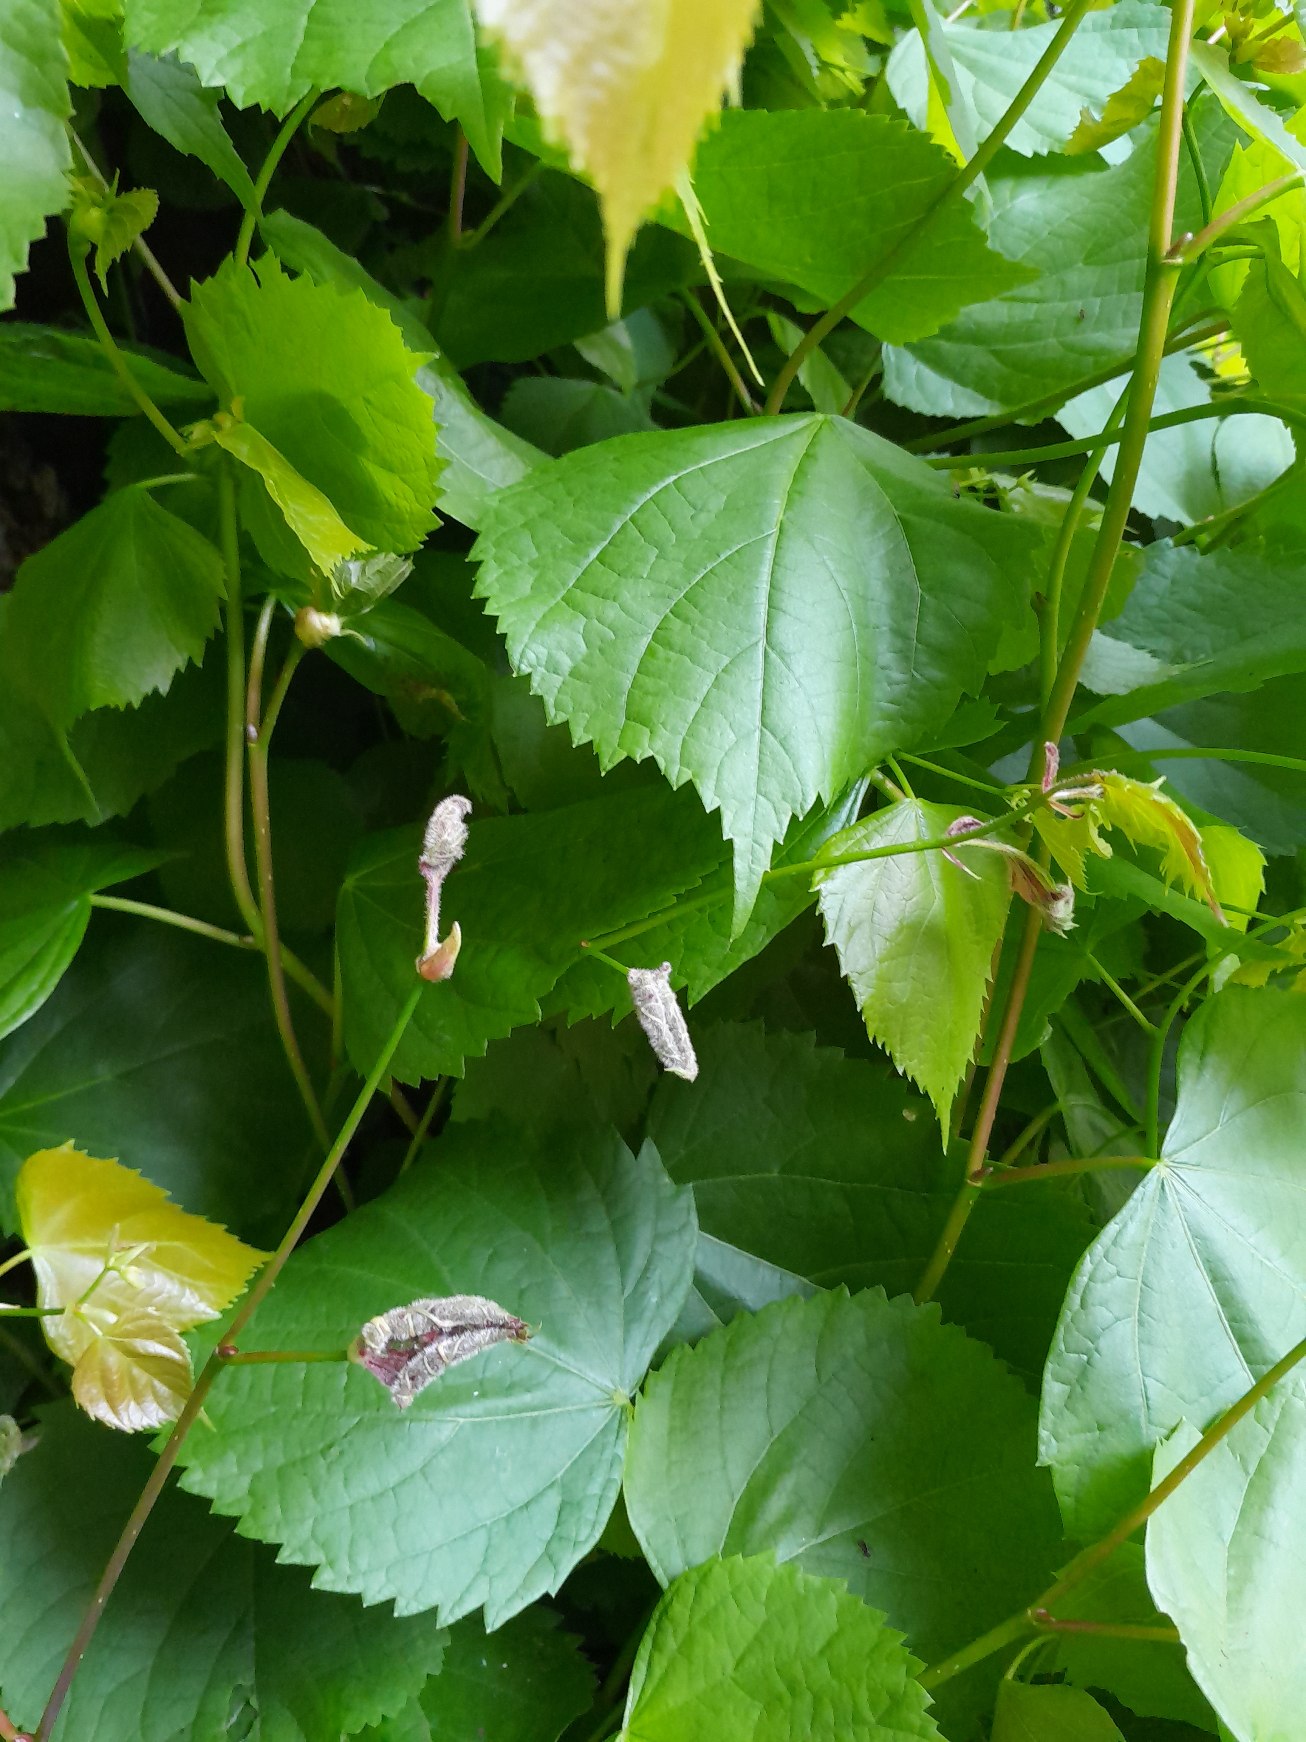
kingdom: Animalia
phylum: Arthropoda
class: Insecta
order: Diptera
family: Cecidomyiidae
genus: Dasineura
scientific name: Dasineura tiliae
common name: Linderullegalmyg
